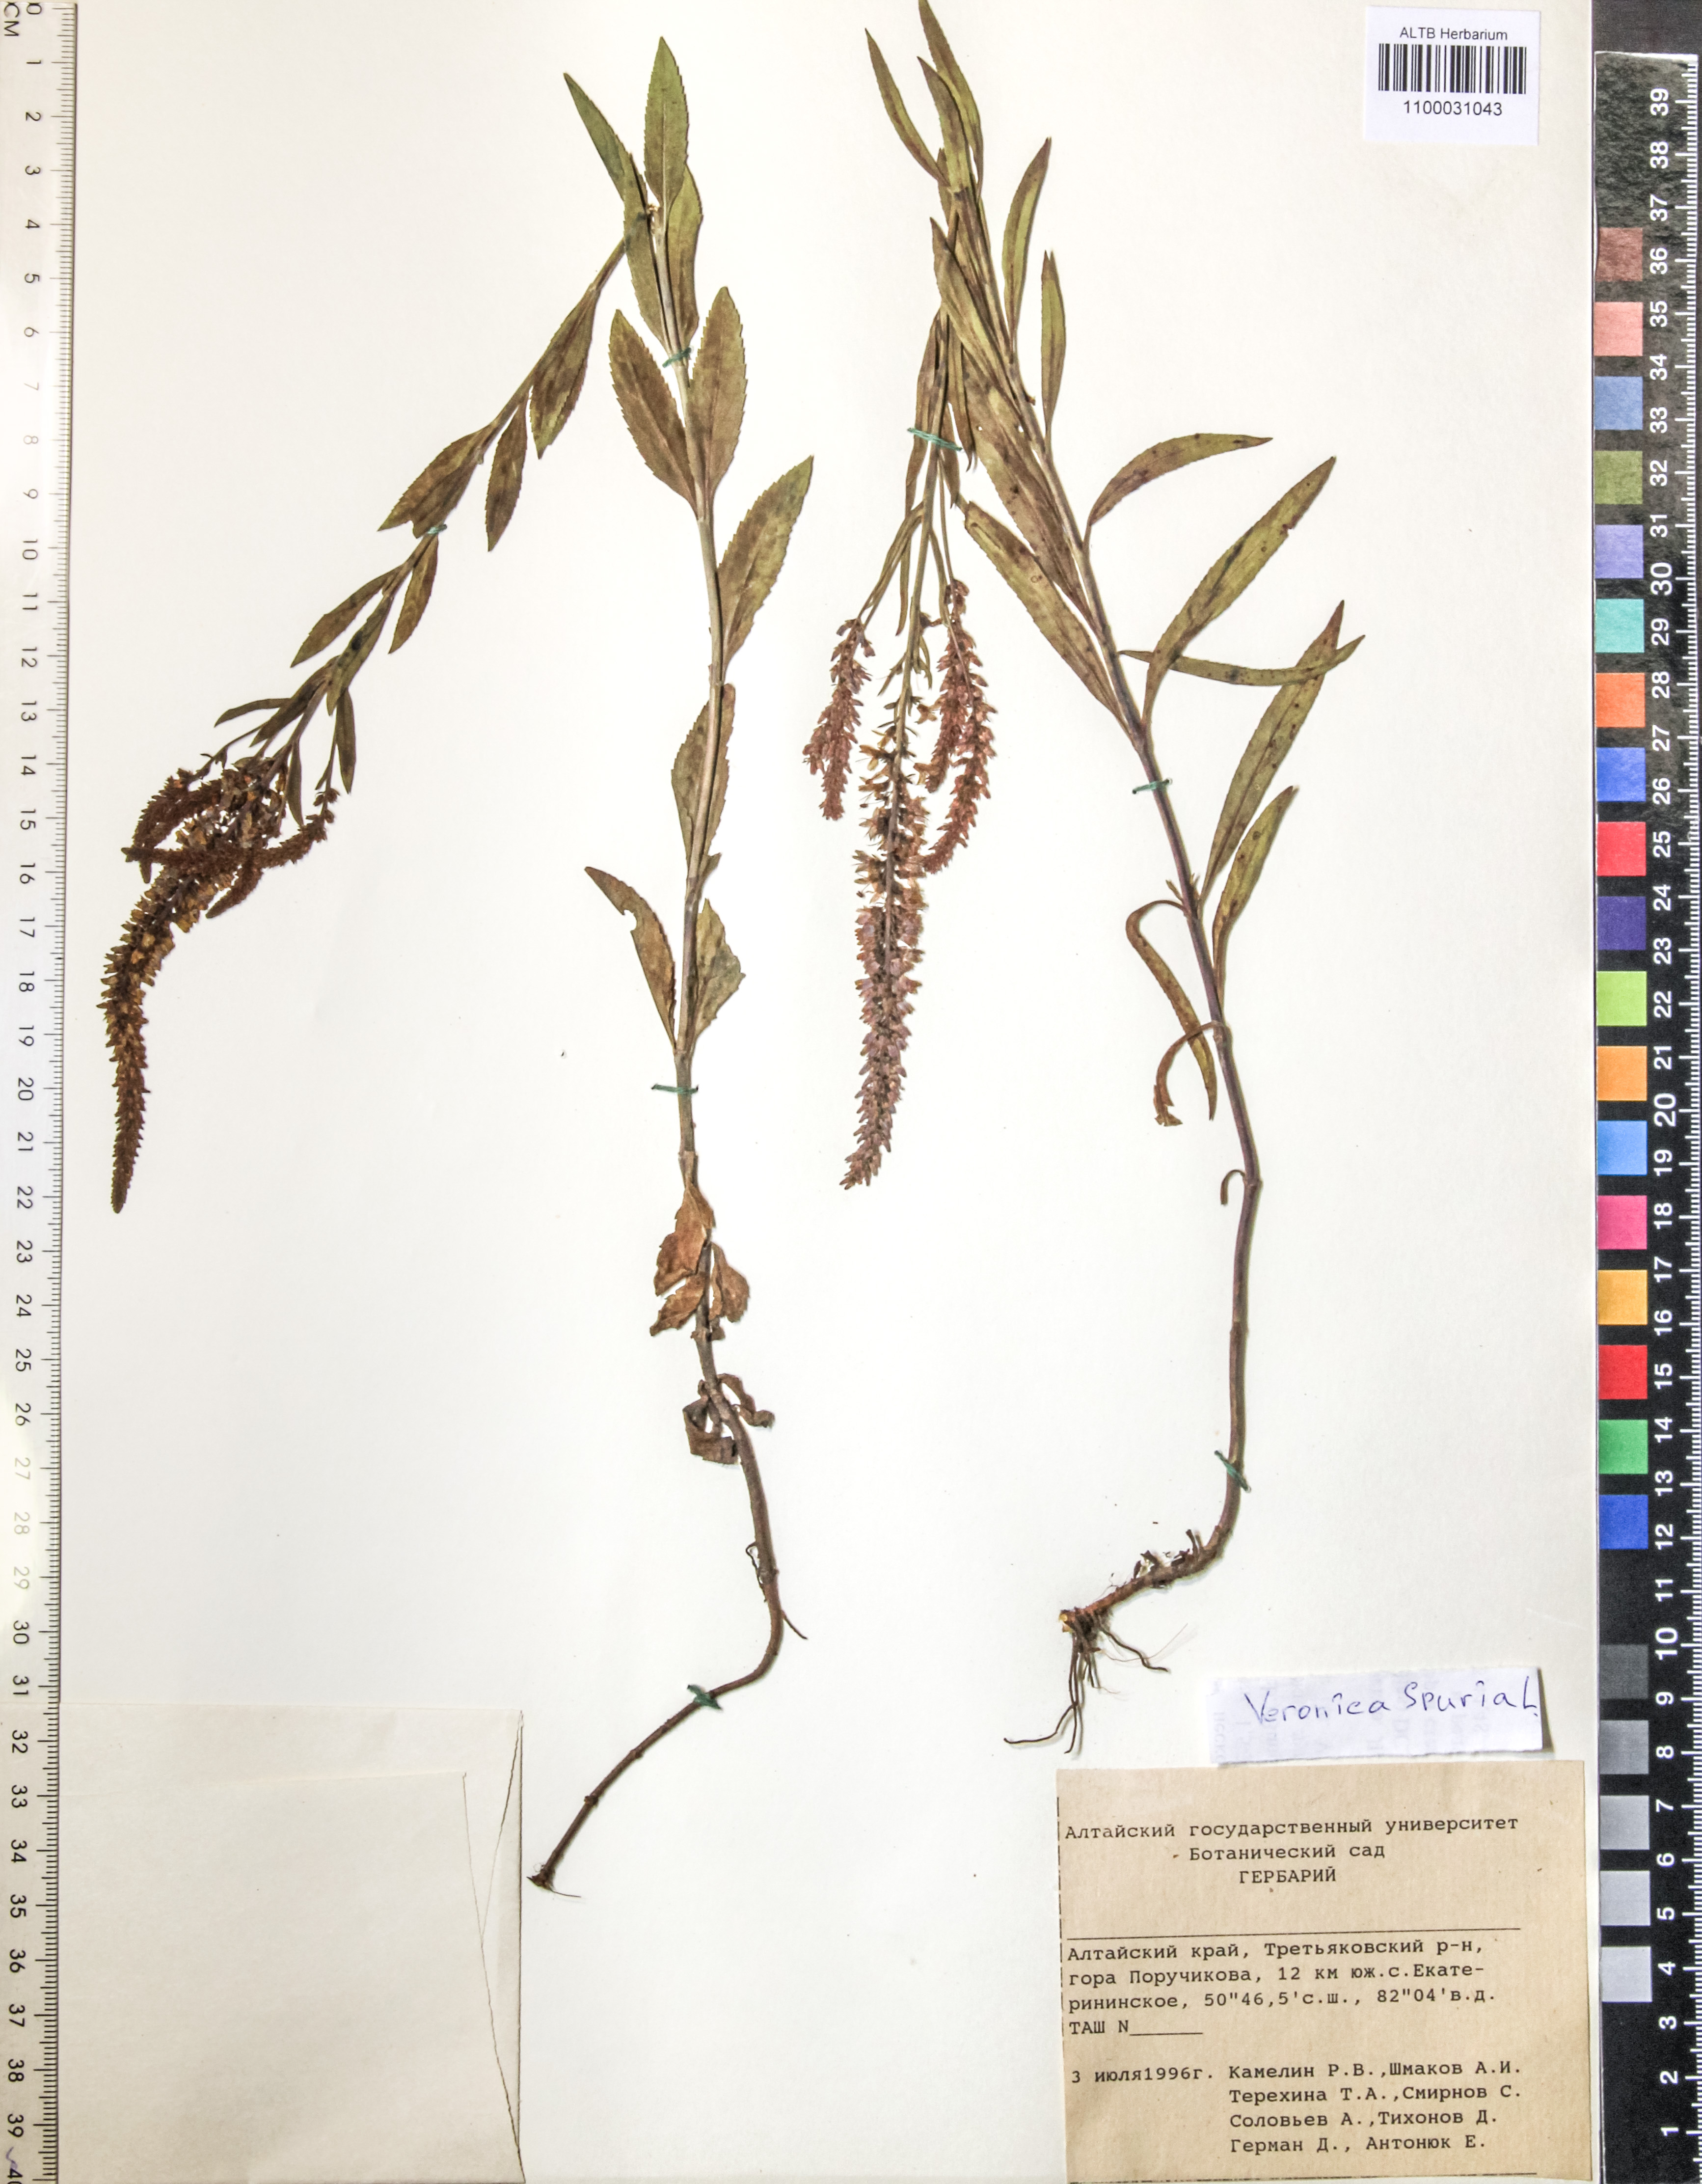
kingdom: Plantae
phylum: Tracheophyta
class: Magnoliopsida
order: Lamiales
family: Plantaginaceae
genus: Veronica
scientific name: Veronica spuria
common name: Bastard speedwell
